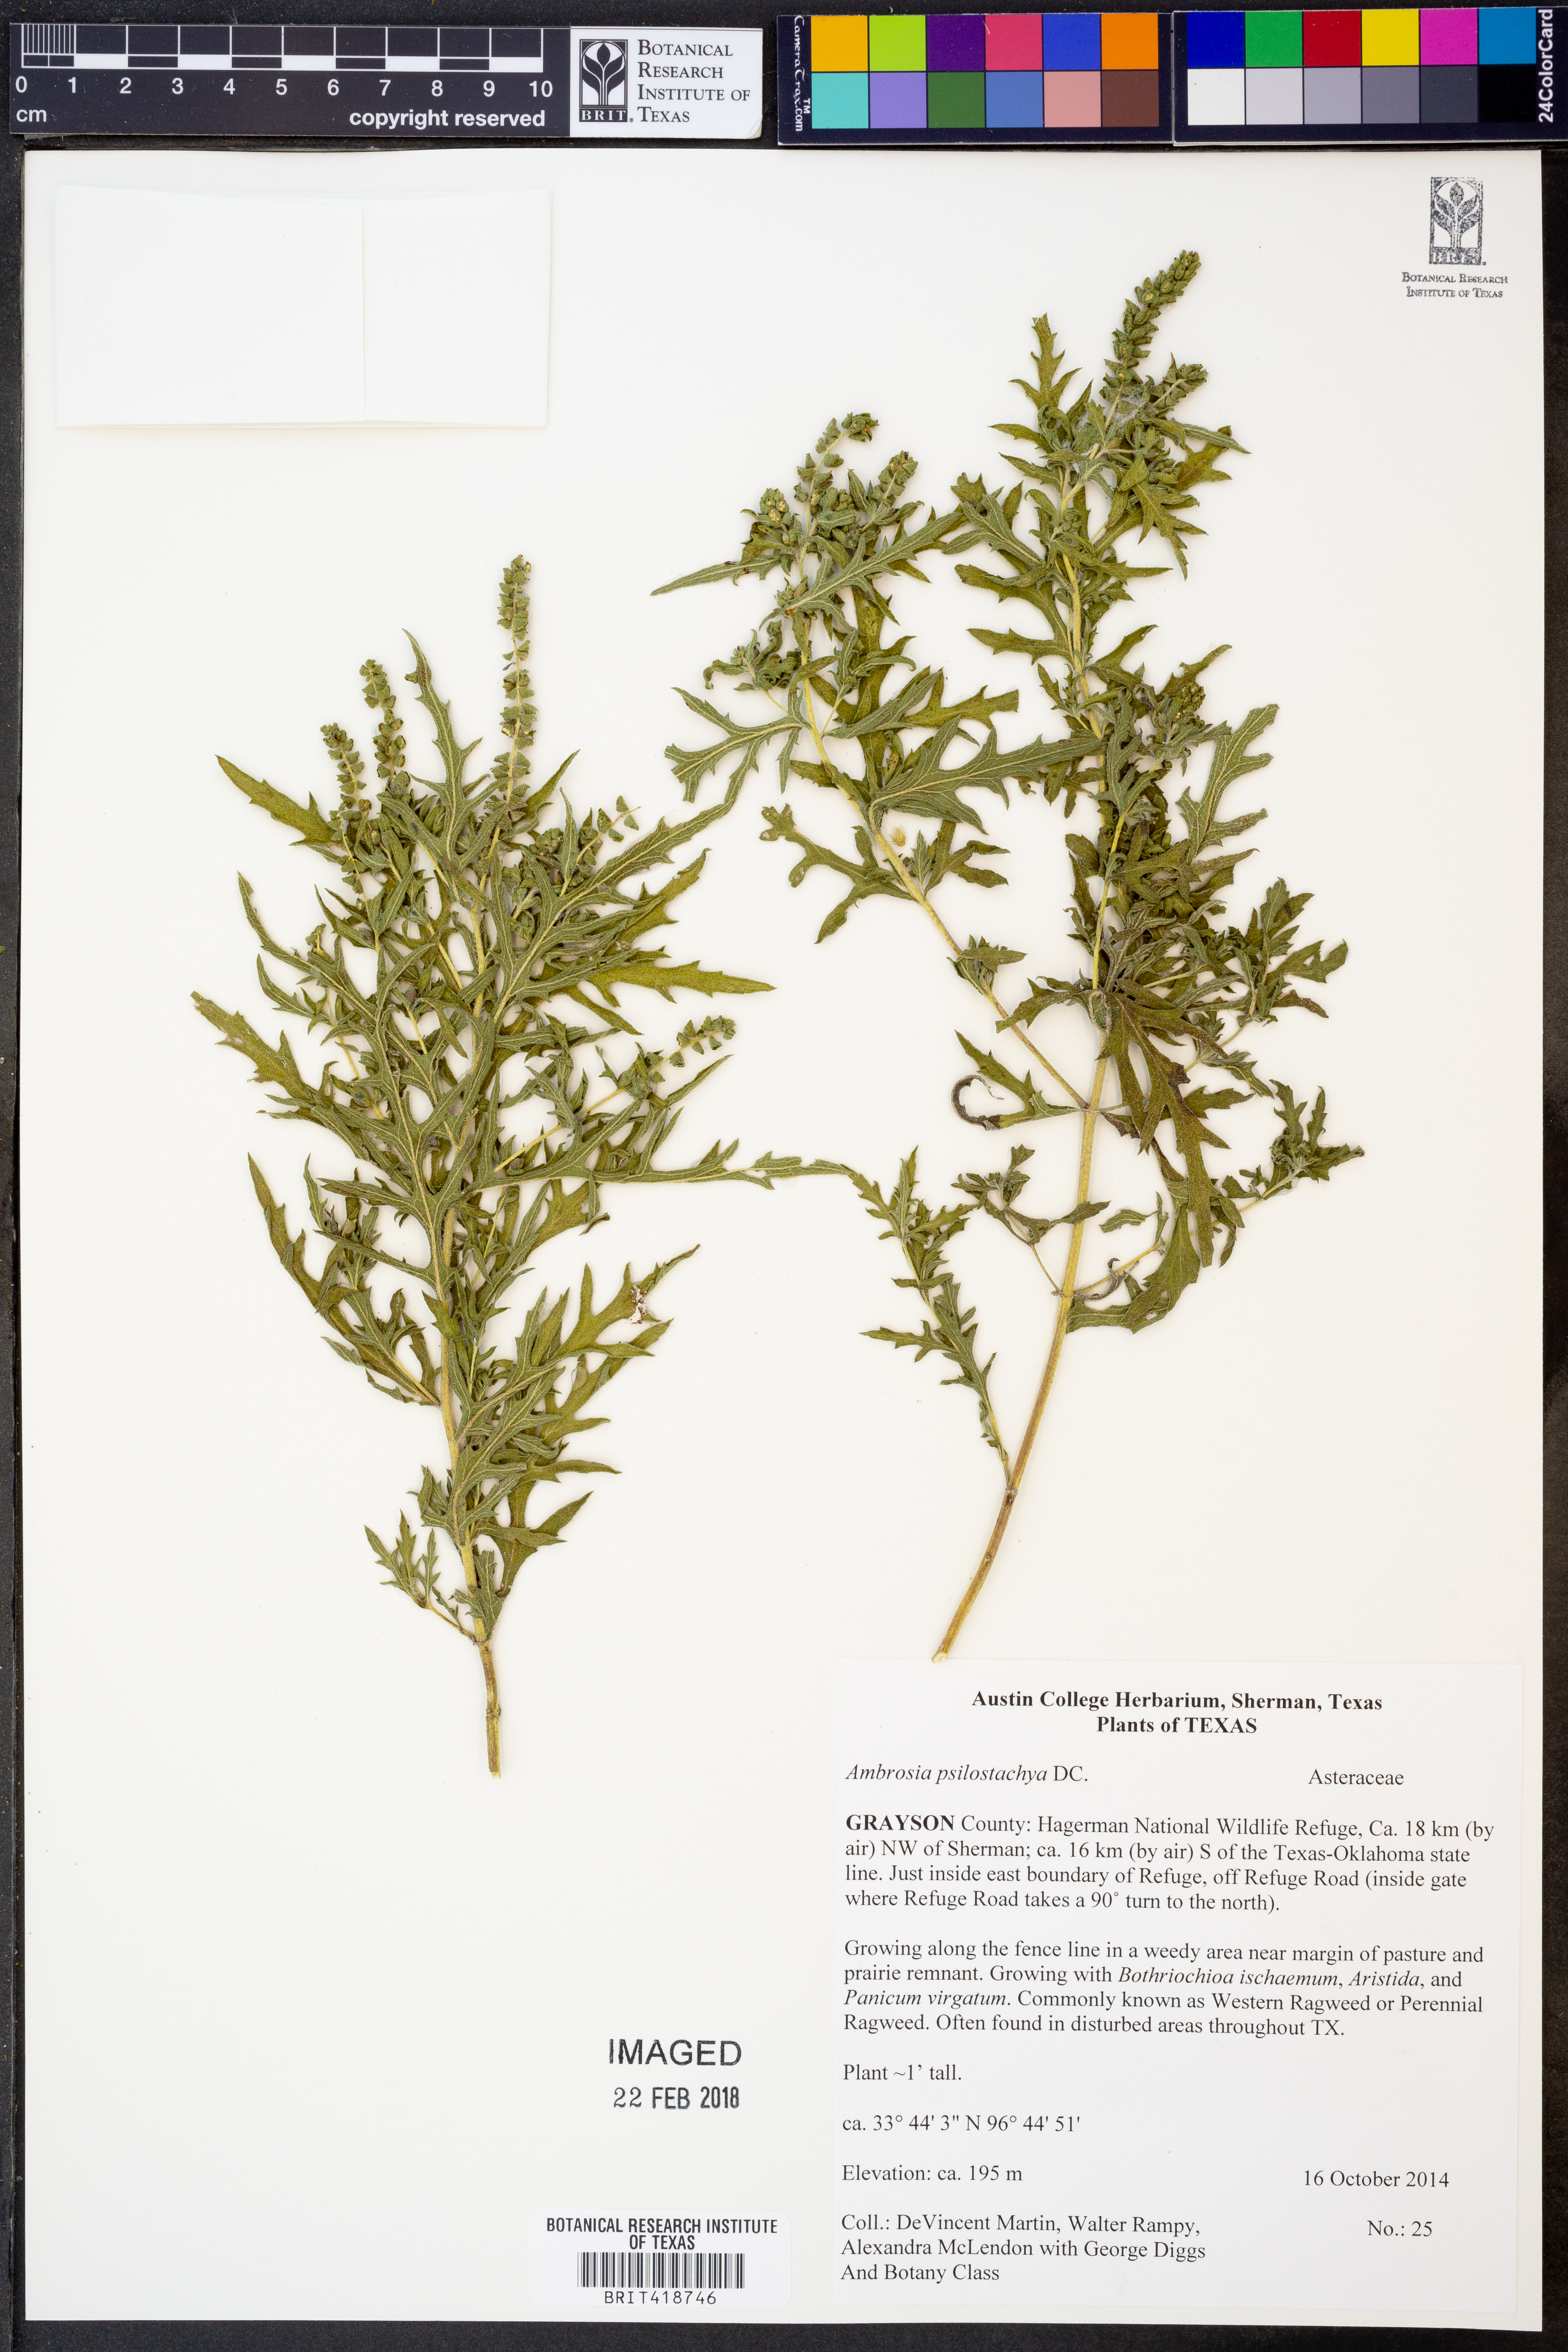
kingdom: Plantae
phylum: Tracheophyta
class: Magnoliopsida
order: Asterales
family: Asteraceae
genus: Ambrosia
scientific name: Ambrosia psilostachya
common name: Perennial ragweed
